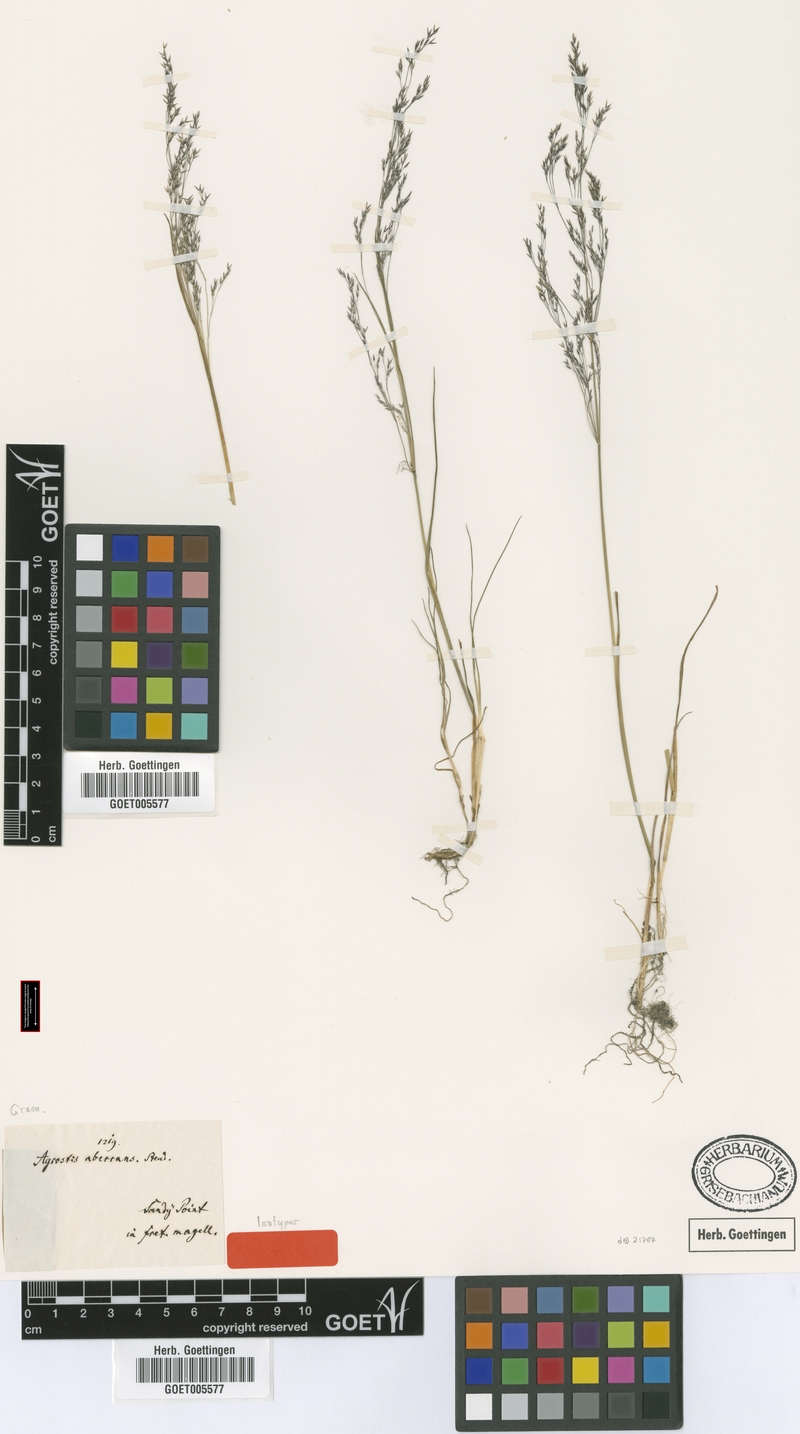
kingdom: Plantae
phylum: Tracheophyta
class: Liliopsida
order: Poales
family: Poaceae
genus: Agrostis
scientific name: Agrostis perennans
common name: Autumn bent
